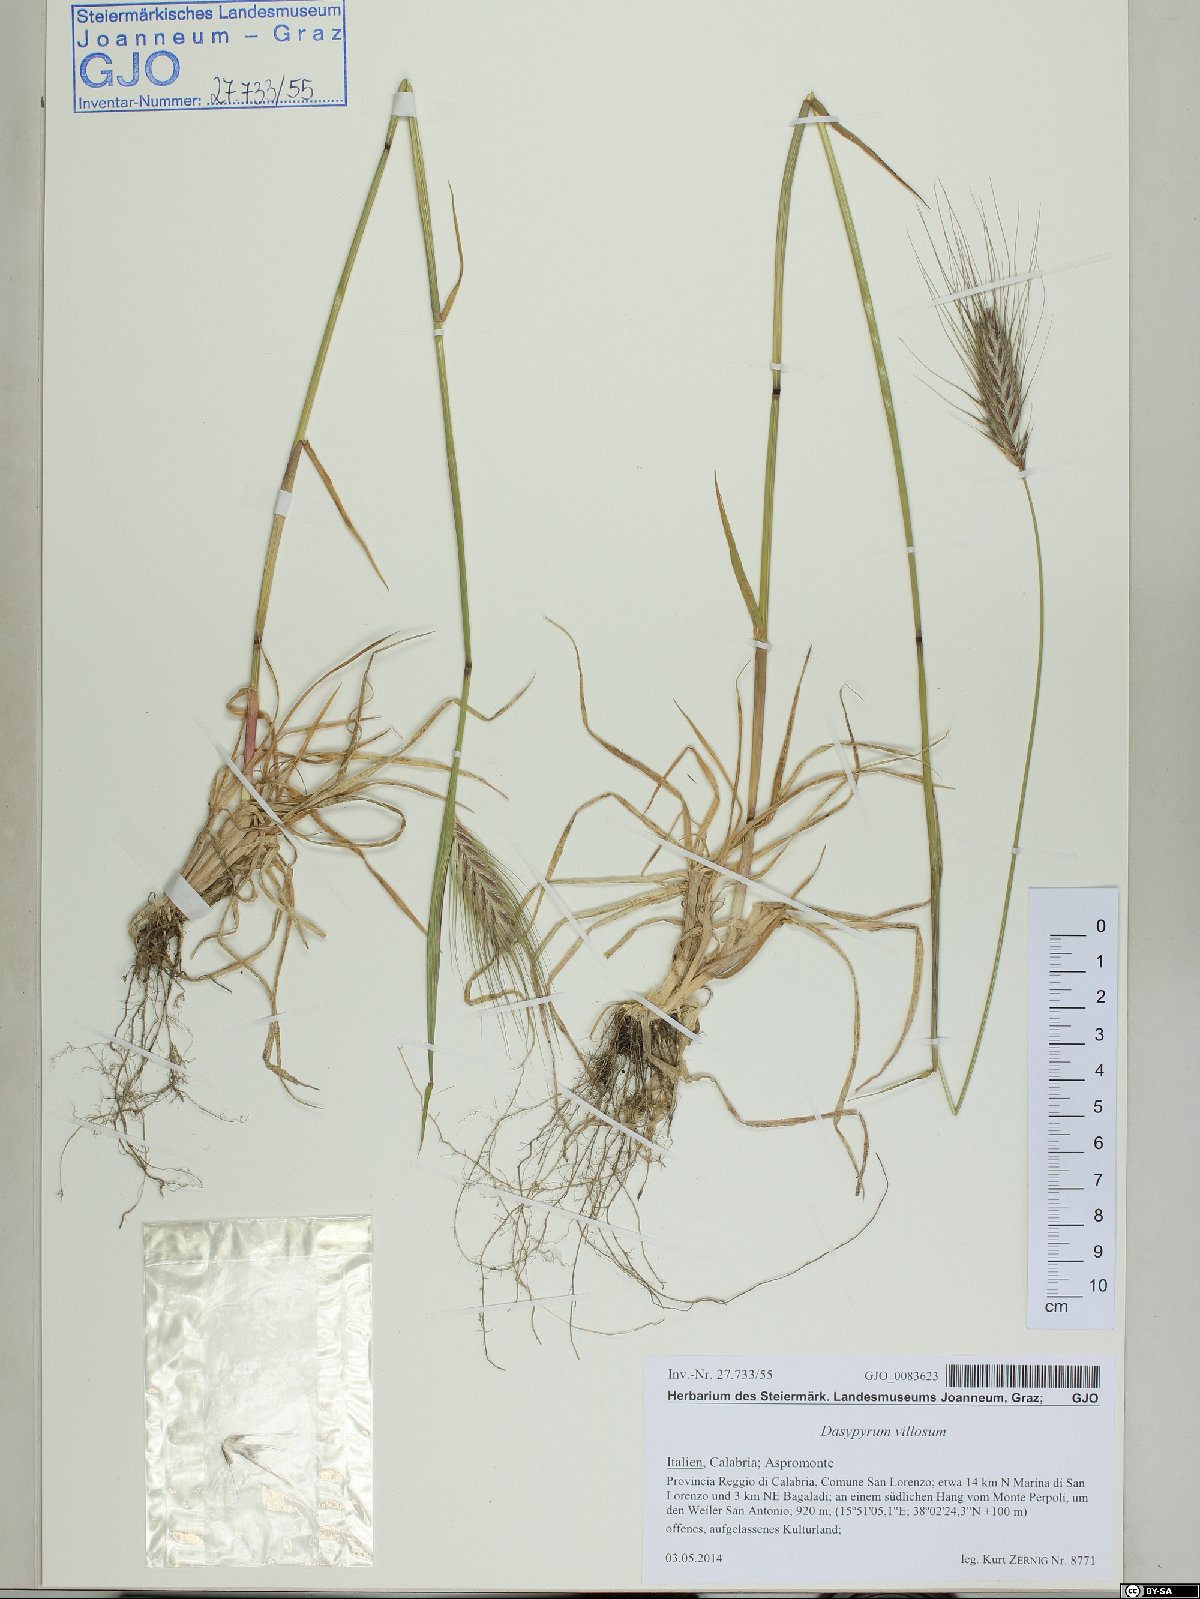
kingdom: Plantae
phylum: Tracheophyta
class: Liliopsida
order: Poales
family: Poaceae
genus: Dasypyrum
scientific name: Dasypyrum villosum
